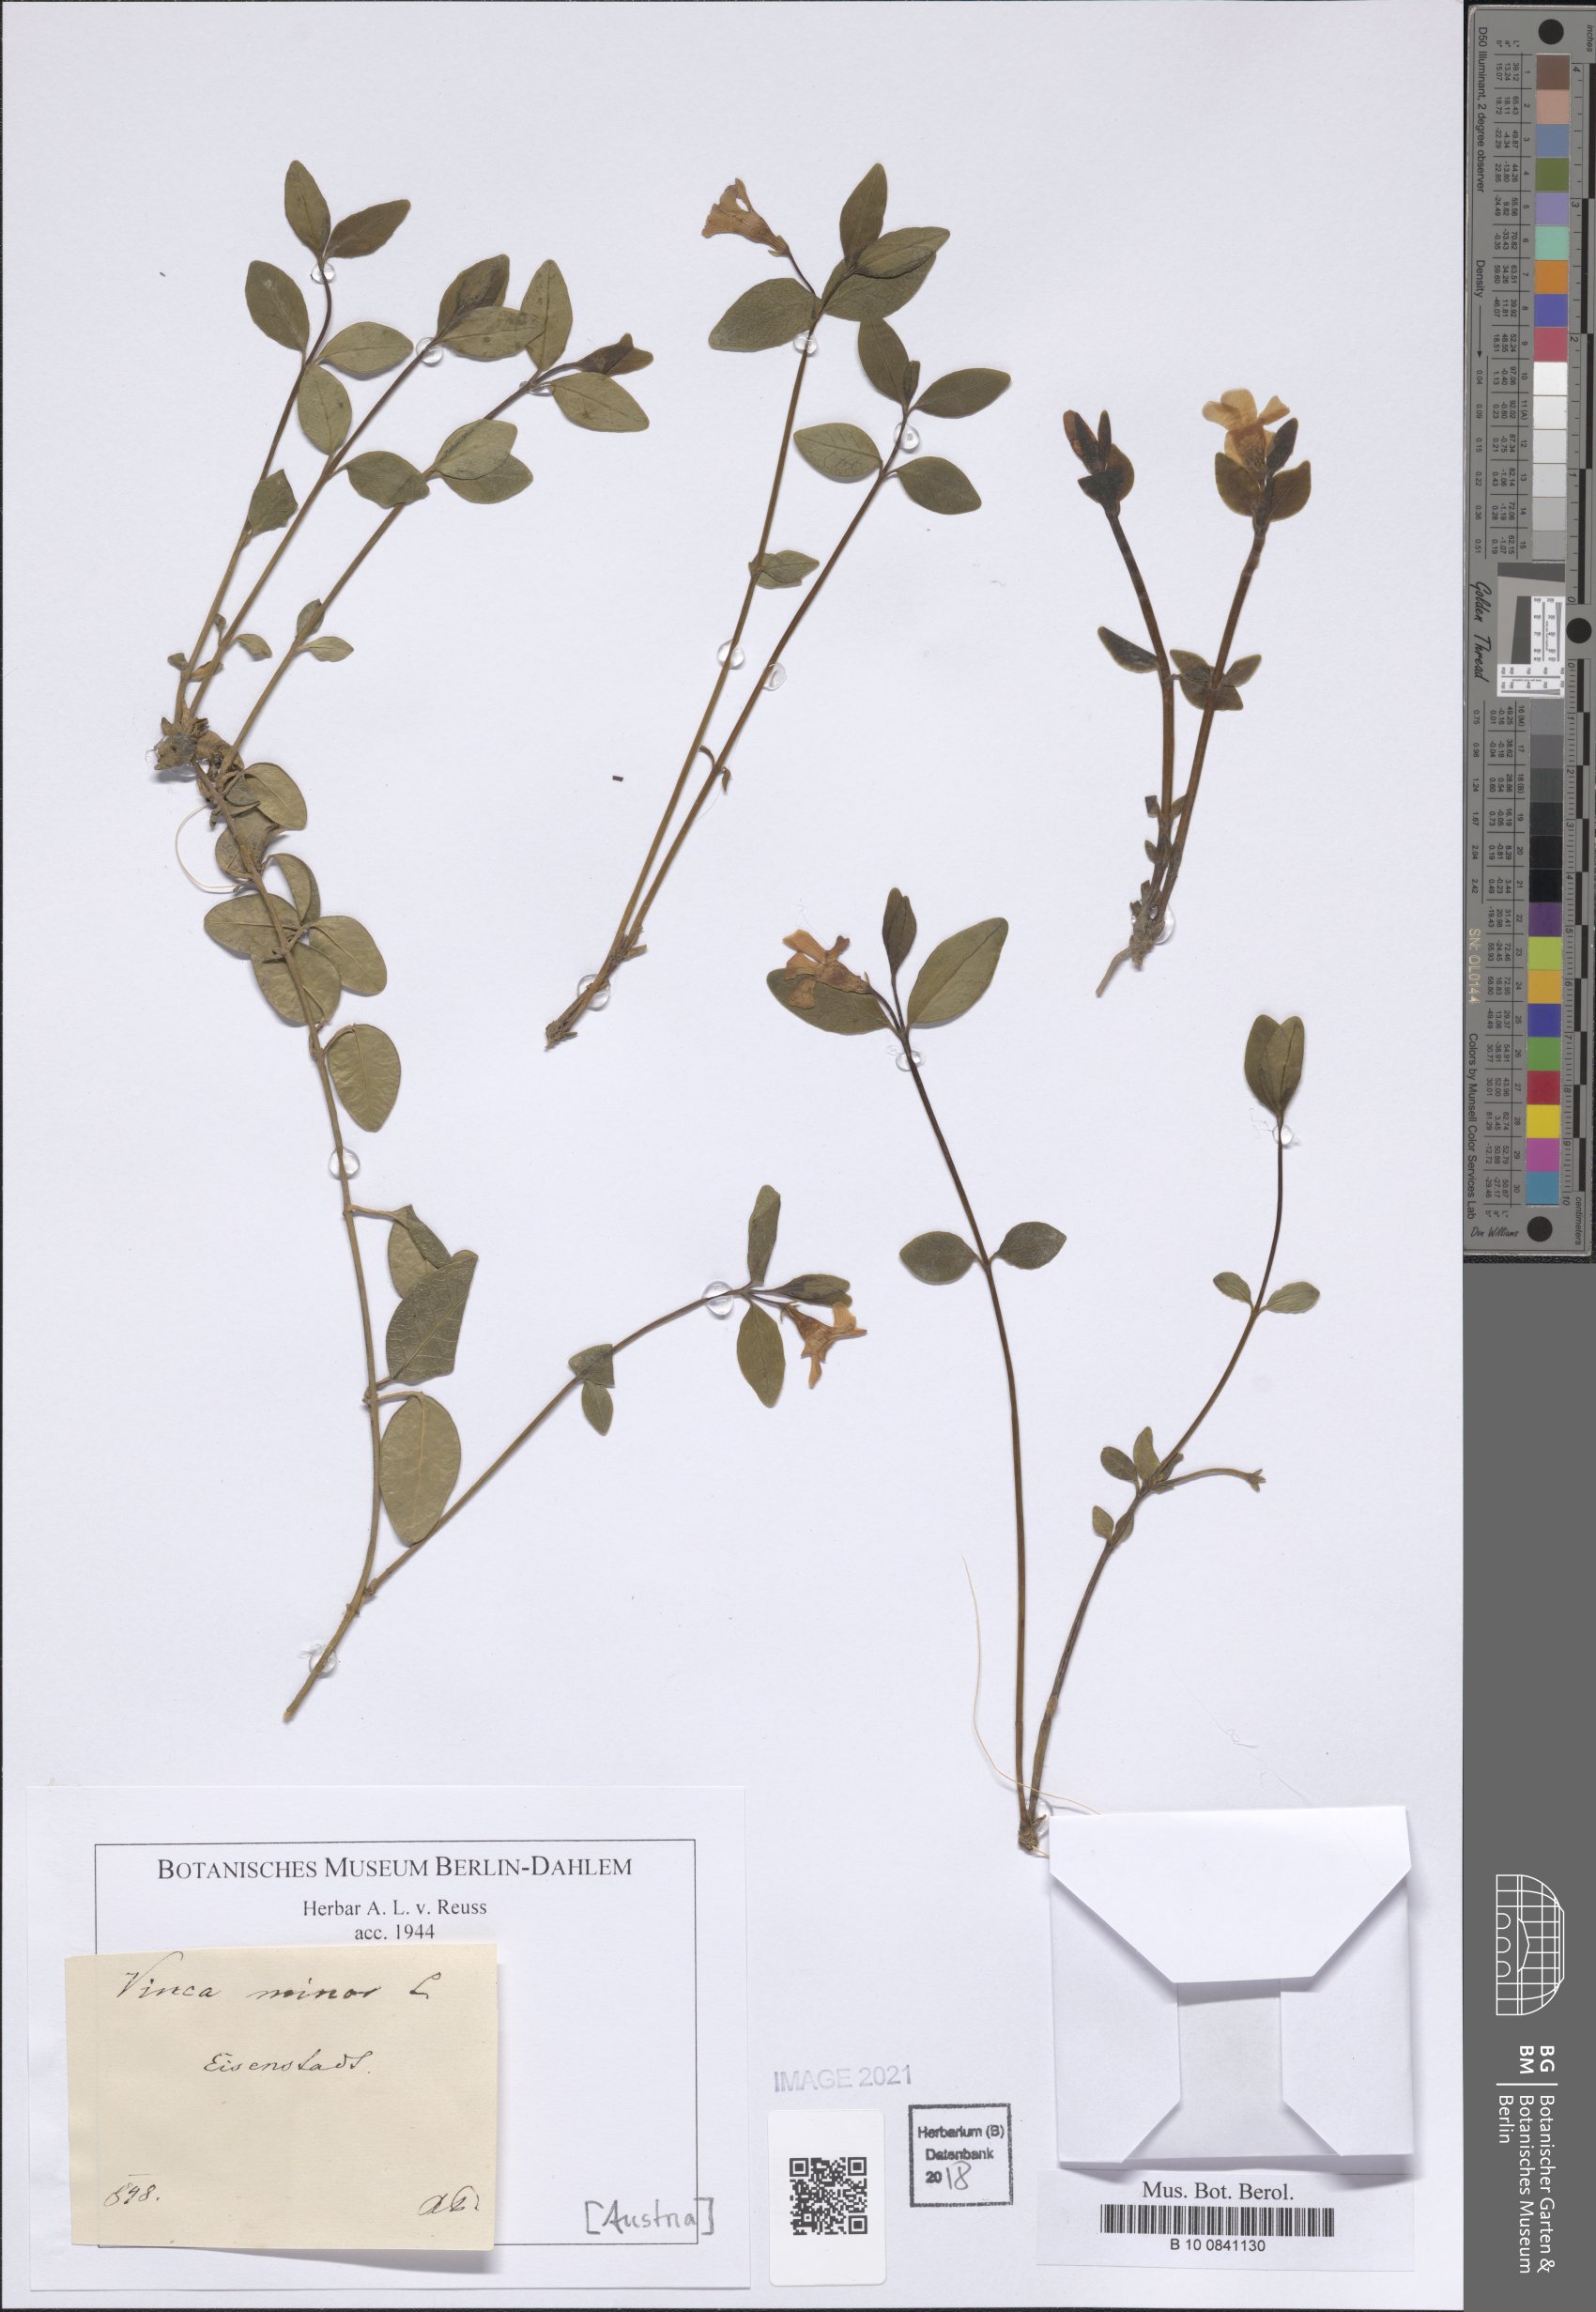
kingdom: Plantae
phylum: Tracheophyta
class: Magnoliopsida
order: Gentianales
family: Apocynaceae
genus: Vinca
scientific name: Vinca minor
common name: Lesser periwinkle
